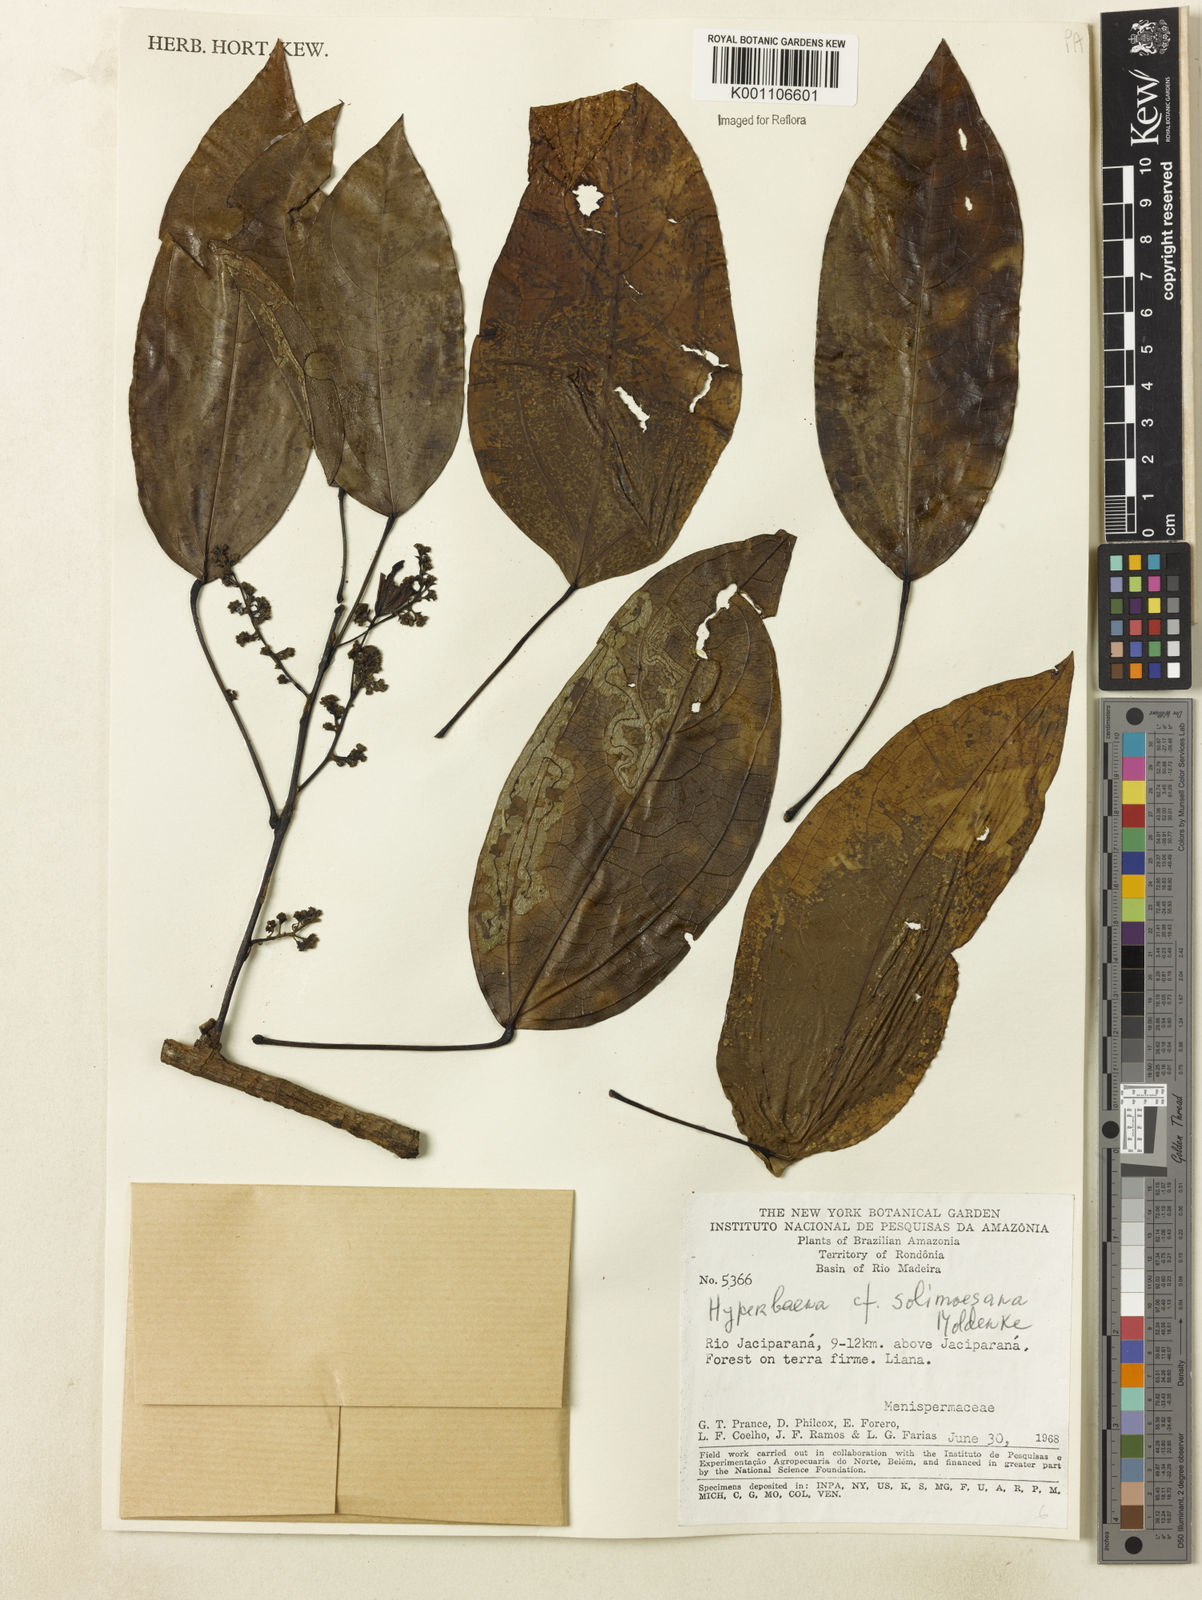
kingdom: Plantae
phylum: Tracheophyta
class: Magnoliopsida
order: Ranunculales
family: Menispermaceae
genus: Elissarrhena
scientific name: Elissarrhena solimoesana
